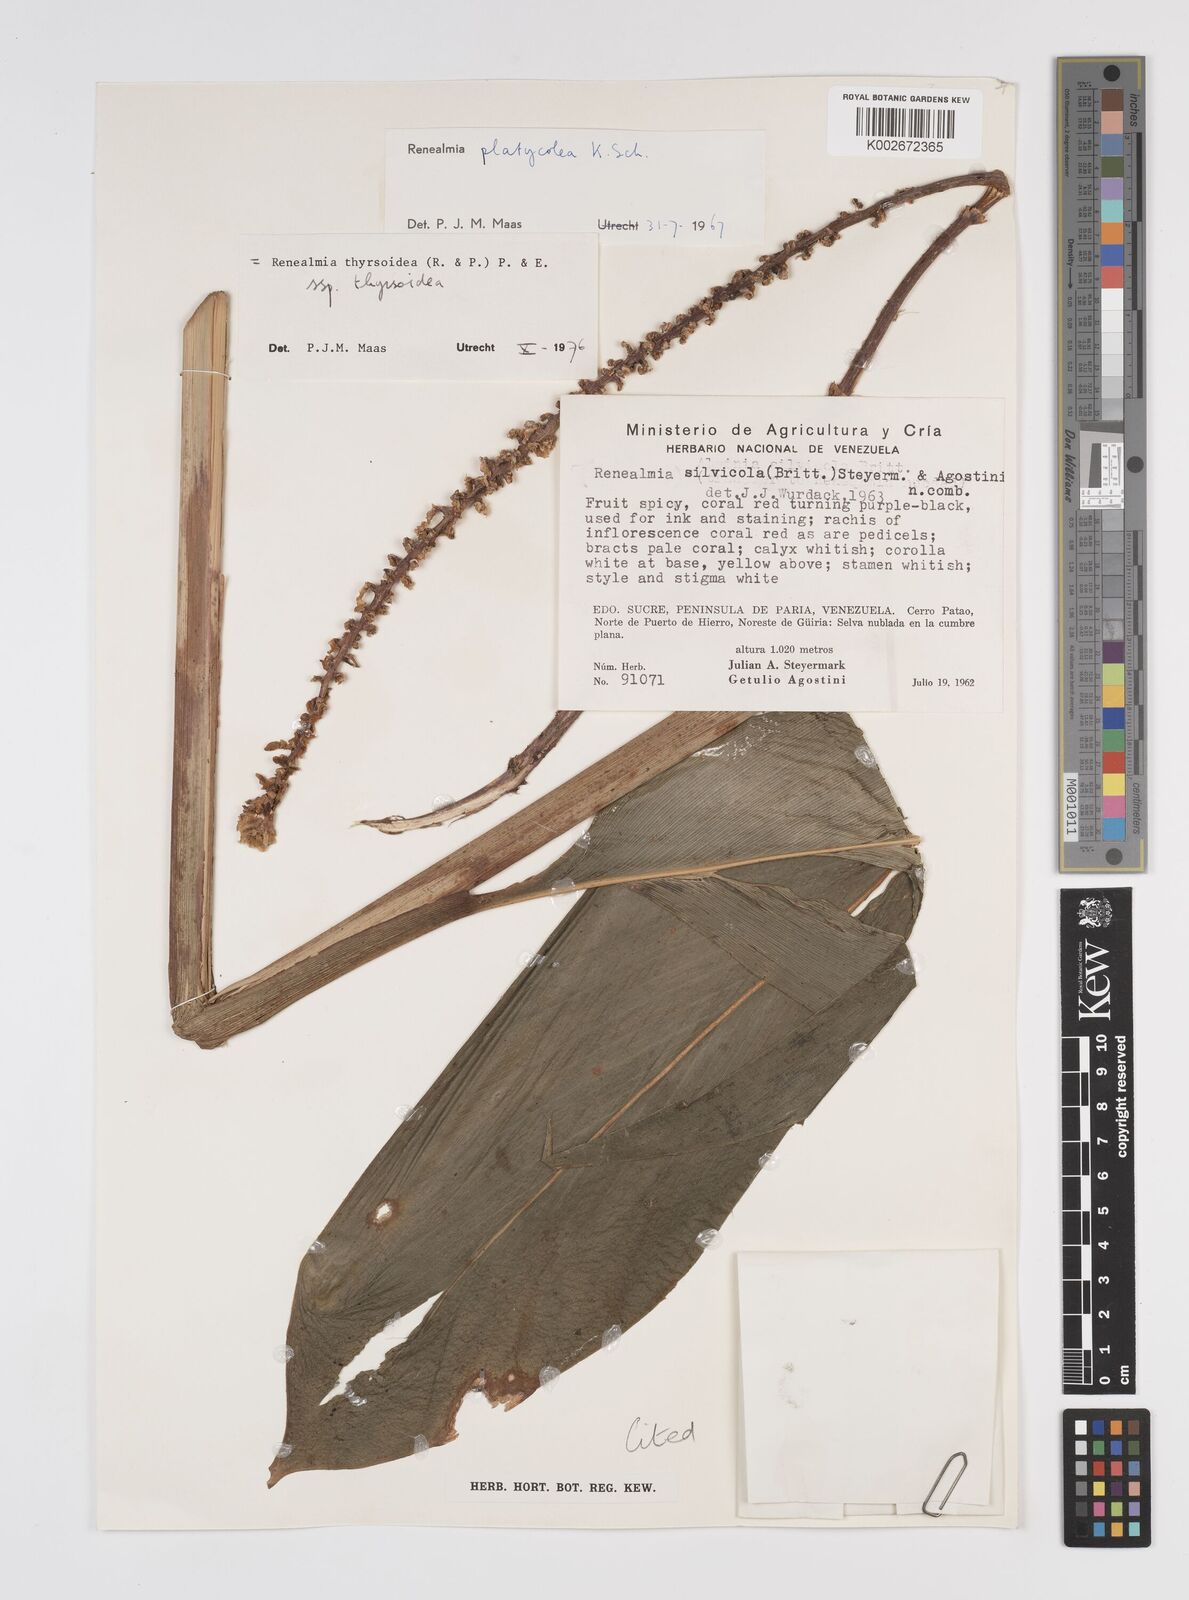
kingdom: Plantae
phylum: Tracheophyta
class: Liliopsida
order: Zingiberales
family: Zingiberaceae
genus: Renealmia
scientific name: Renealmia thyrsoidea
